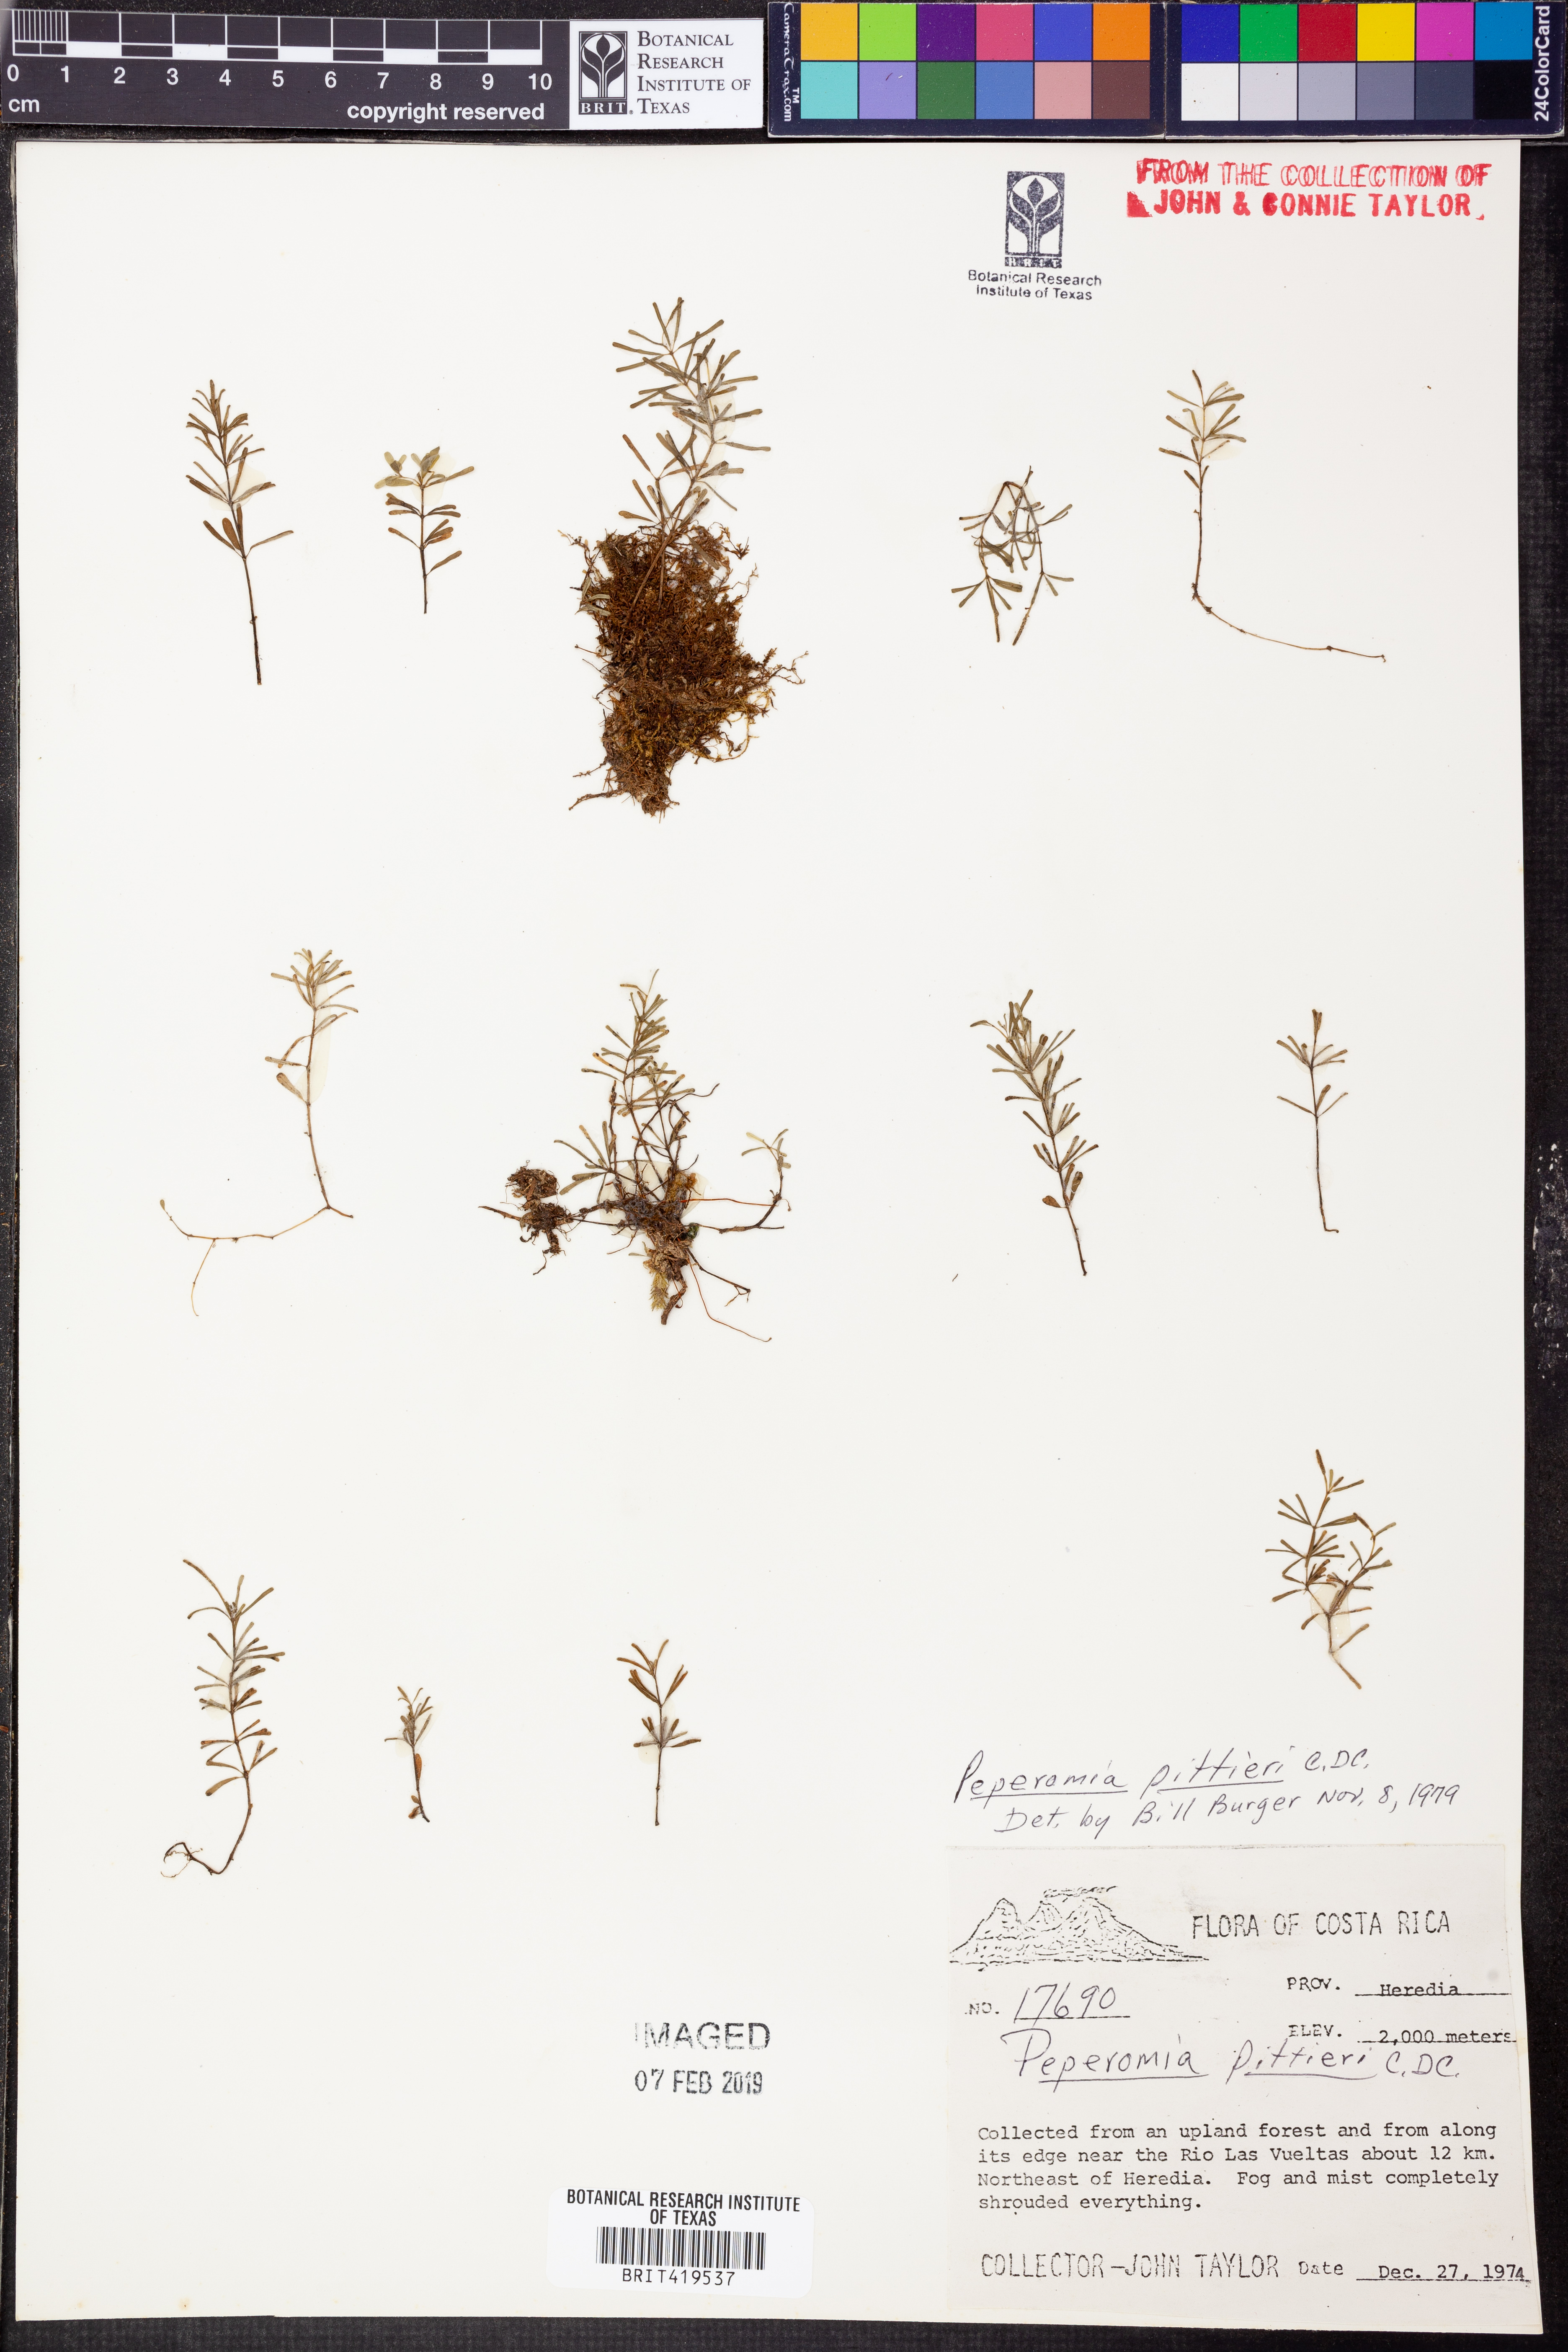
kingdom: Plantae
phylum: Tracheophyta
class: Magnoliopsida
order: Piperales
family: Piperaceae
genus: Peperomia
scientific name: Peperomia pittieri
